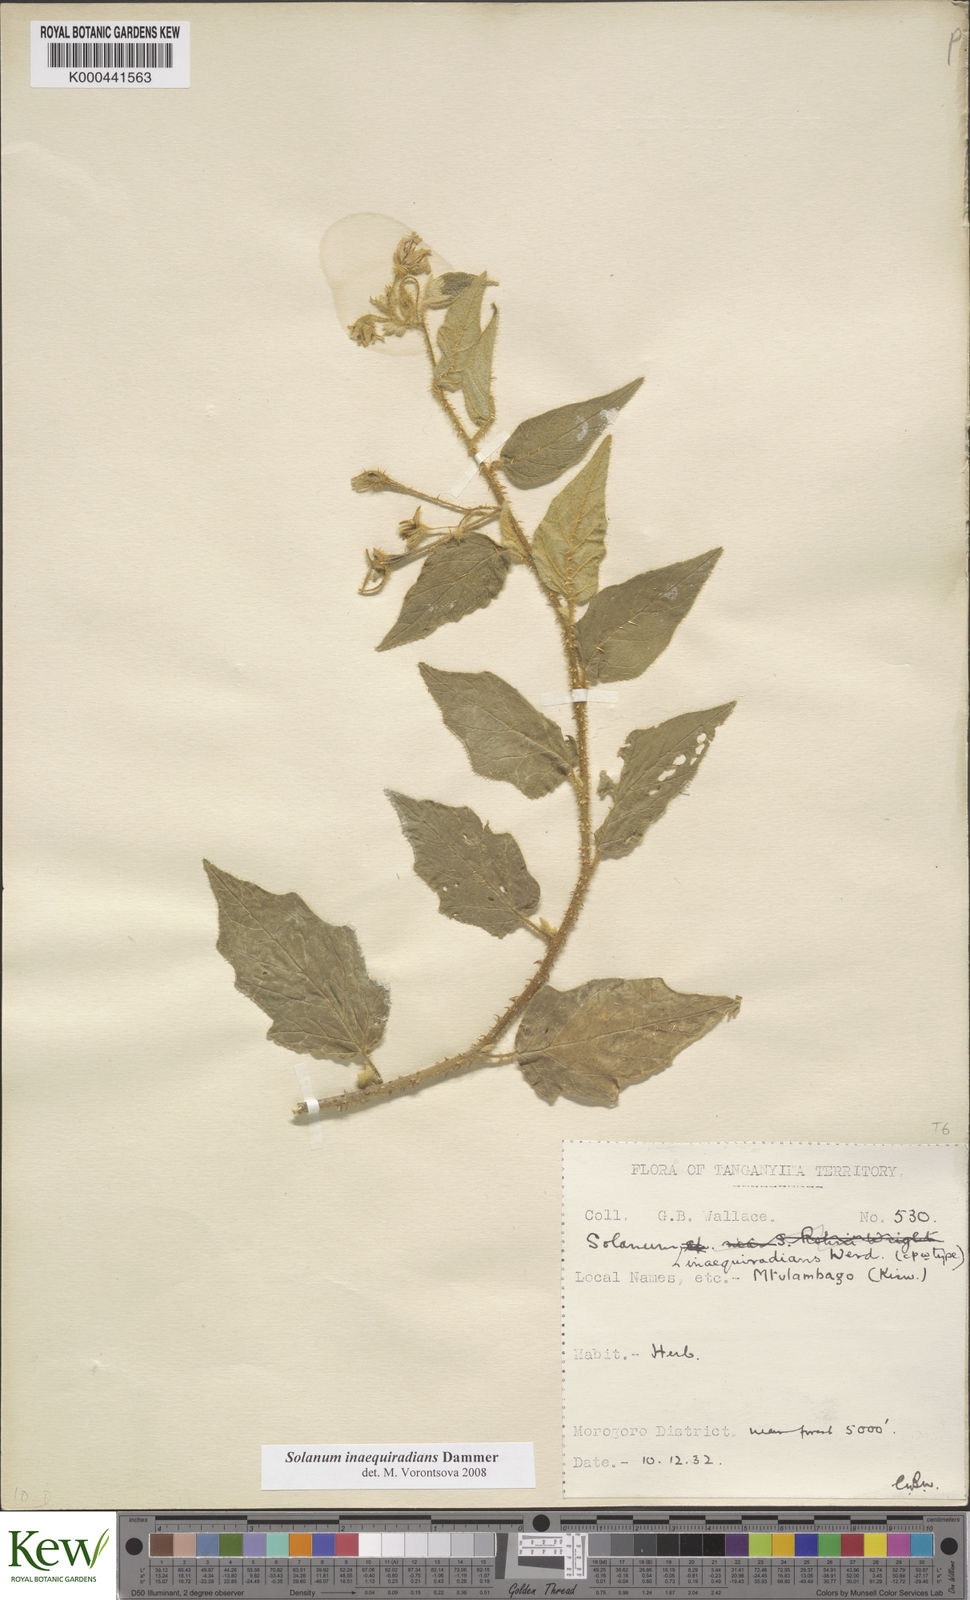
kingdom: Plantae
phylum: Tracheophyta
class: Magnoliopsida
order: Solanales
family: Solanaceae
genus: Solanum
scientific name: Solanum inaequiradians
